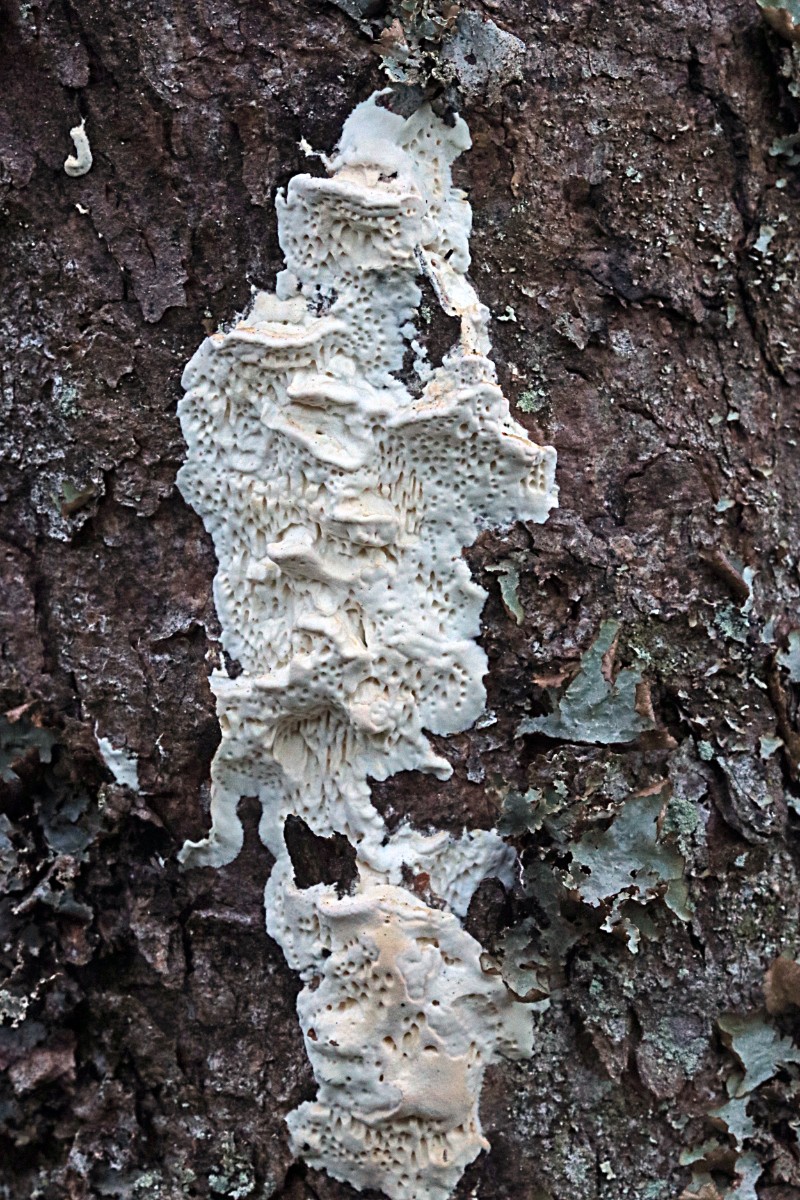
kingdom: Fungi
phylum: Basidiomycota
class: Agaricomycetes
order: Polyporales
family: Fomitopsidaceae
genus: Fomitopsis
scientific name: Fomitopsis
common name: fyrre-skiveporesvamp
